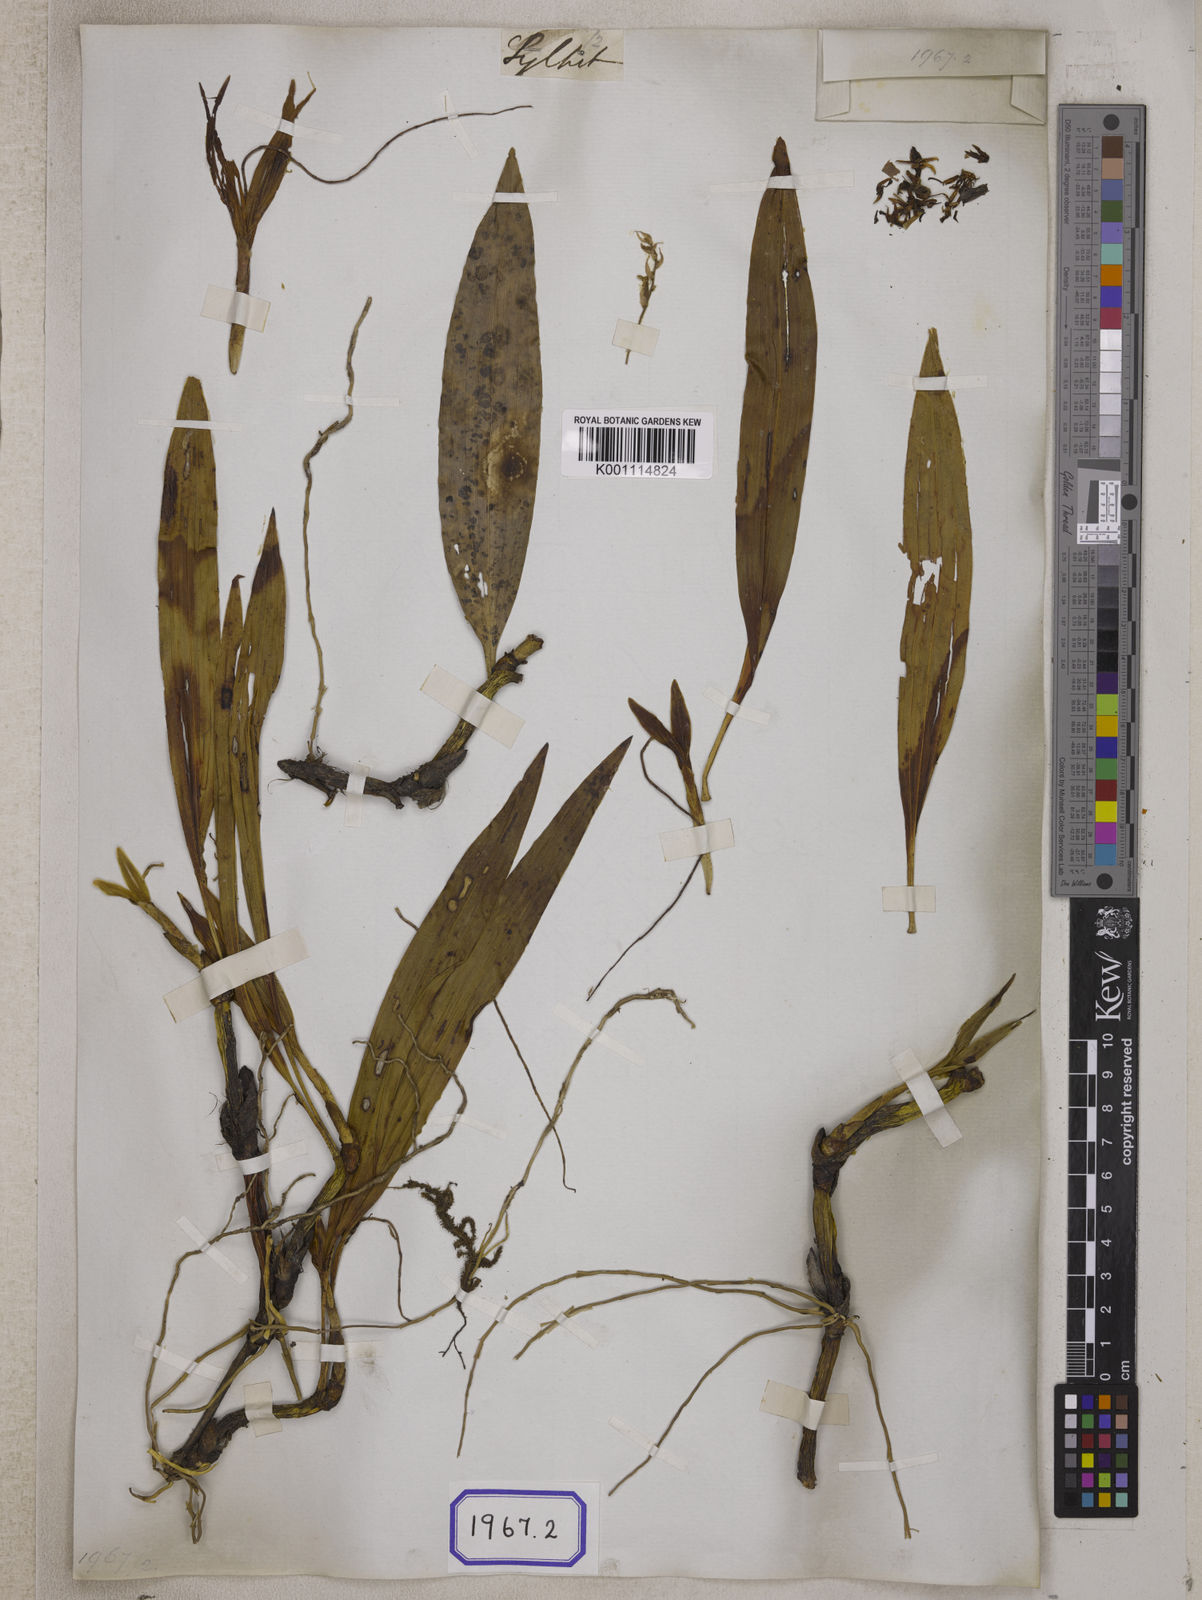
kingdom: Plantae
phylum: Tracheophyta
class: Liliopsida
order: Asparagales
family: Orchidaceae
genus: Coelogyne
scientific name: Coelogyne alba
